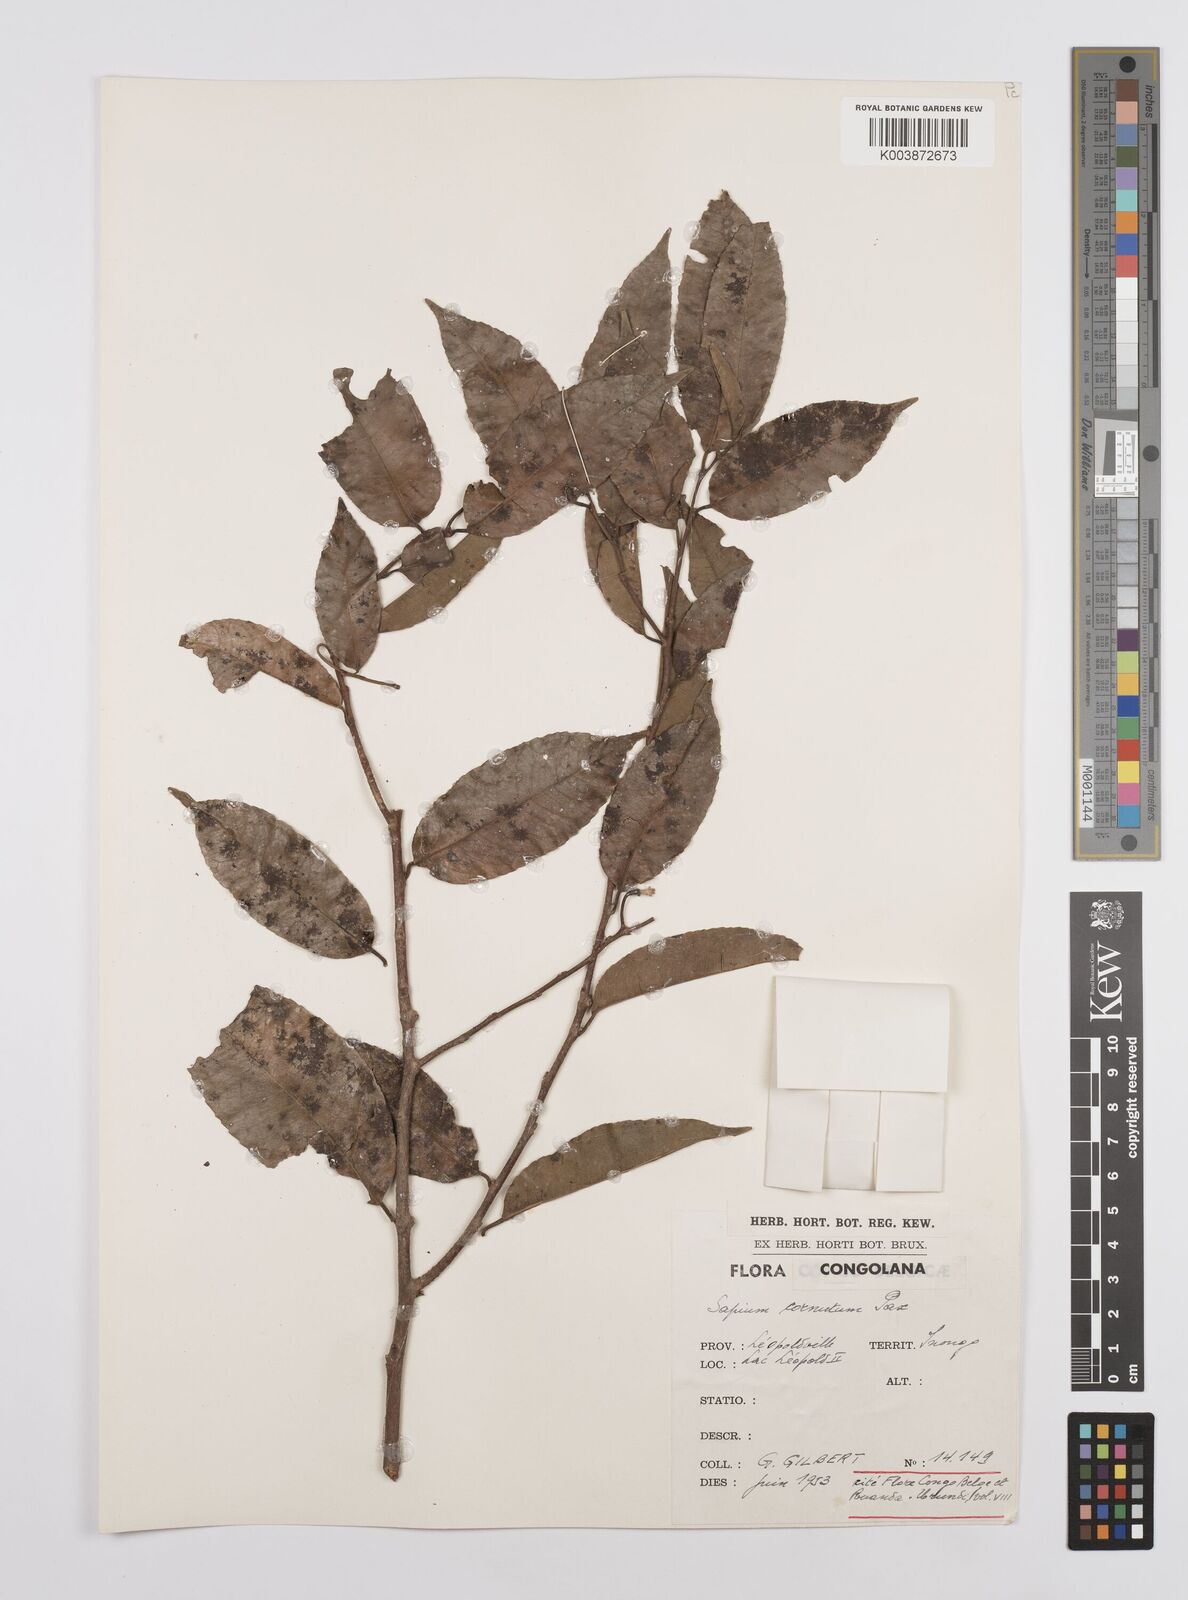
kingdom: Plantae
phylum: Tracheophyta
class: Magnoliopsida
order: Malpighiales
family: Euphorbiaceae
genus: Sclerocroton
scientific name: Sclerocroton cornutus
